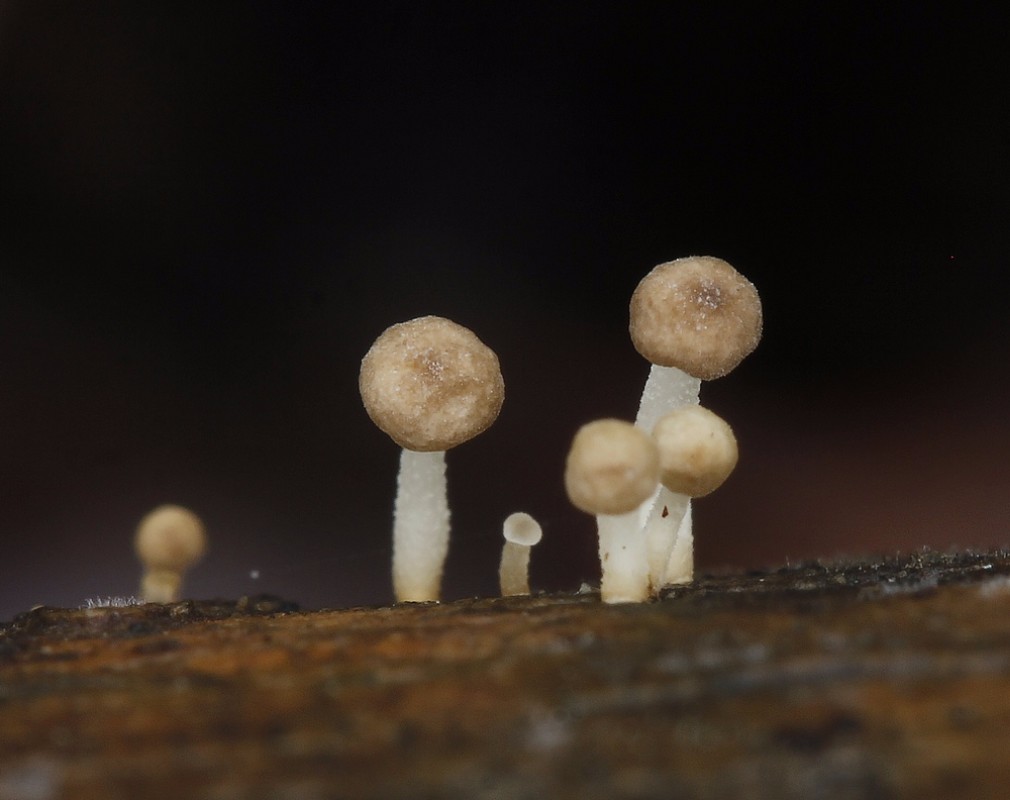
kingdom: Fungi
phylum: Basidiomycota
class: Agaricomycetes
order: Agaricales
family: Porotheleaceae
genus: Phloeomana
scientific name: Phloeomana speirea
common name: kvist-huesvamp
